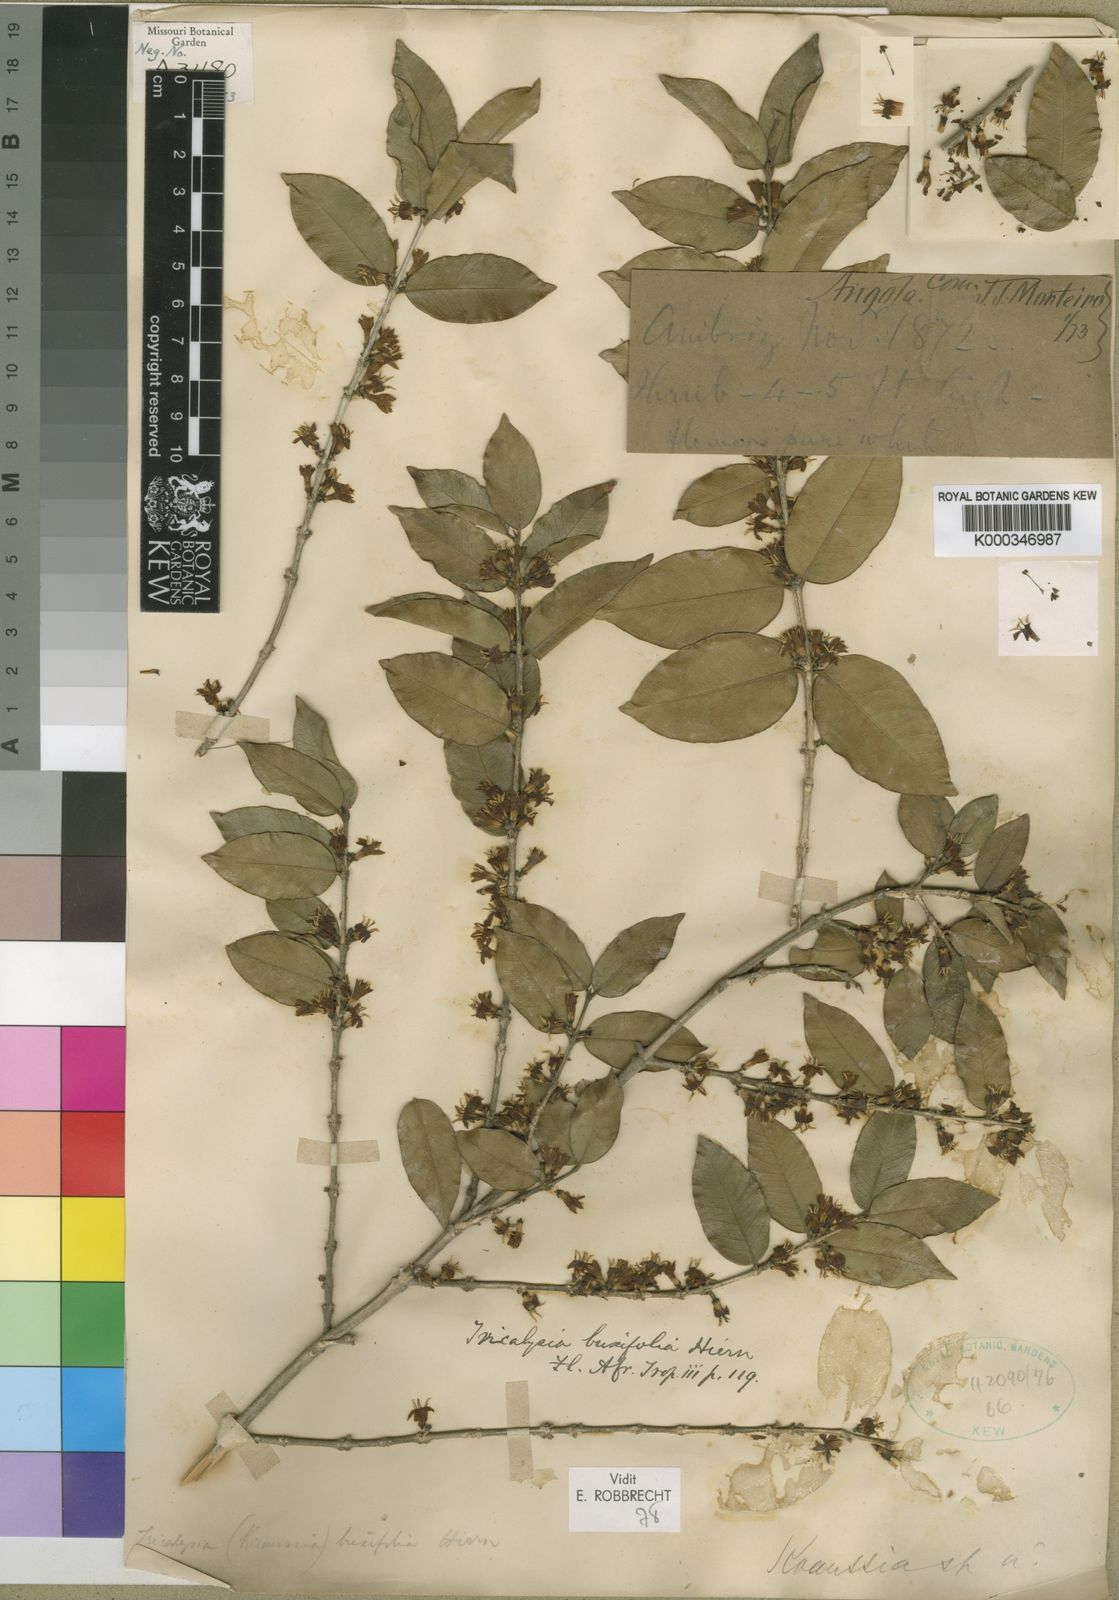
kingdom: Plantae
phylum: Tracheophyta
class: Magnoliopsida
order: Gentianales
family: Rubiaceae
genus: Empogona
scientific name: Empogona buxifolia
